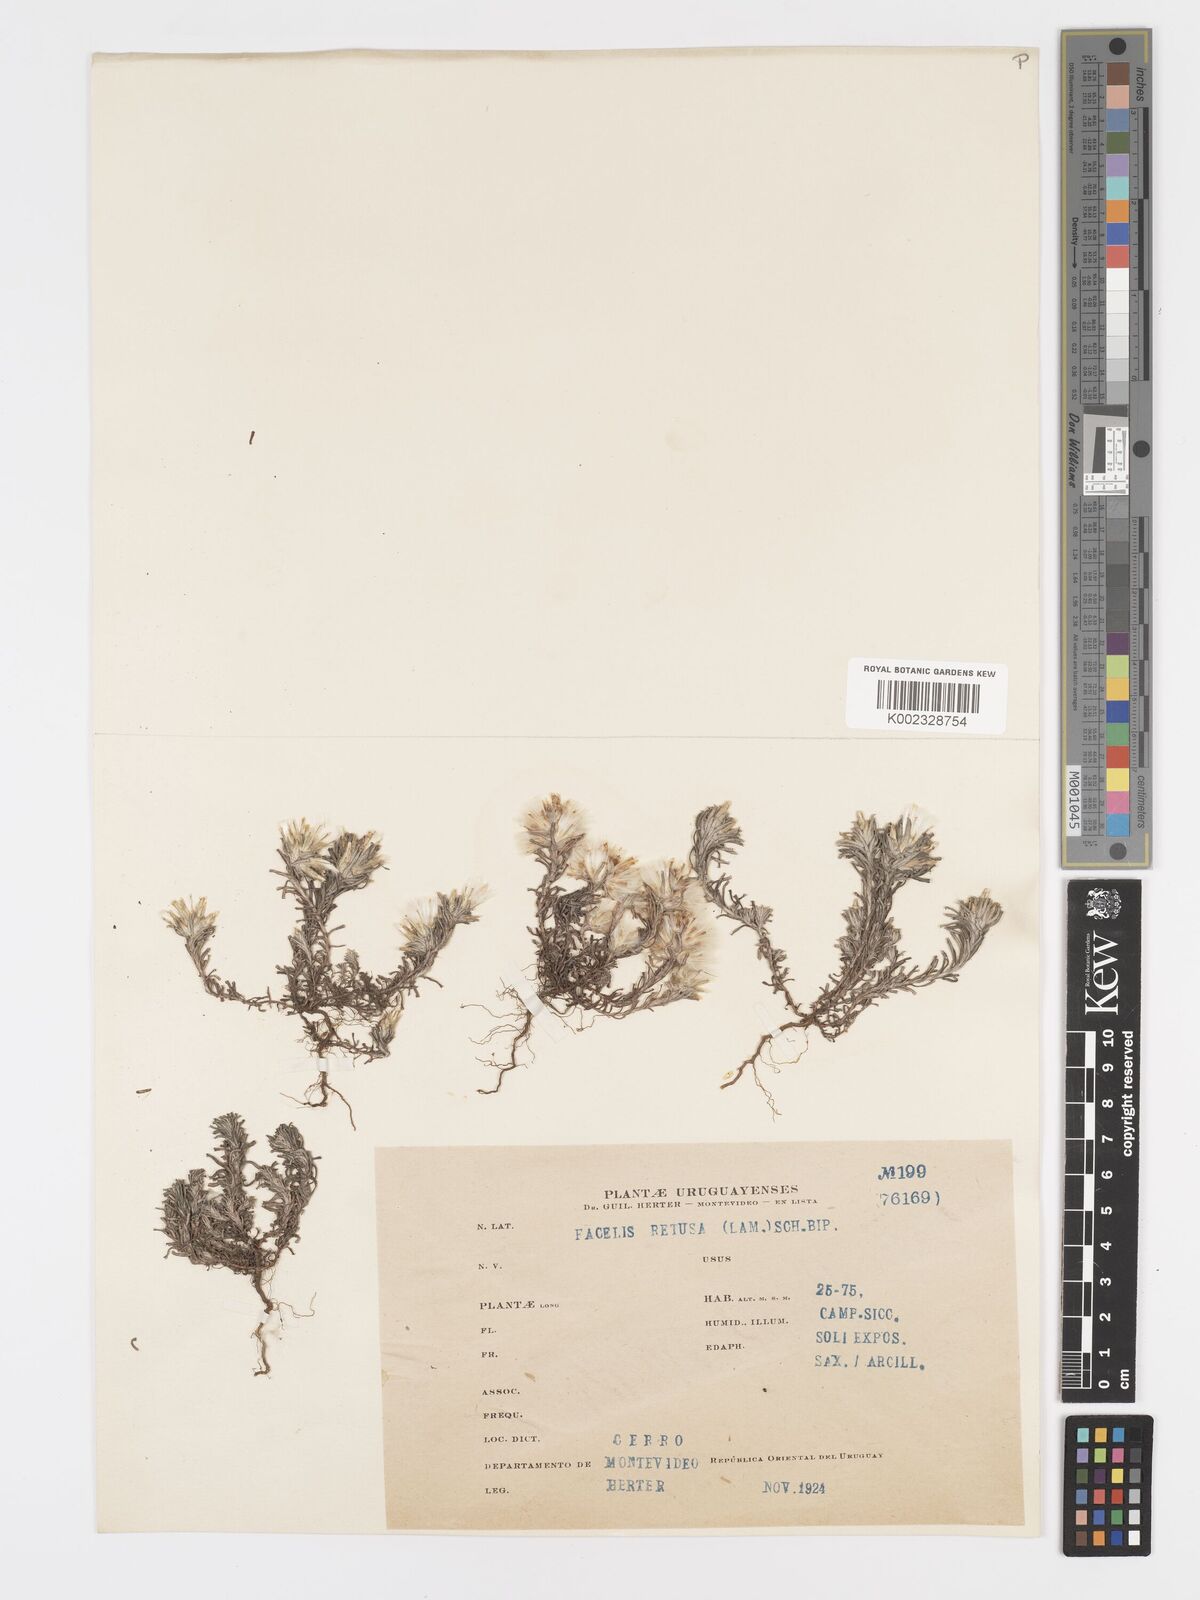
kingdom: Plantae
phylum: Tracheophyta
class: Magnoliopsida
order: Asterales
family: Asteraceae
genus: Facelis
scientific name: Facelis retusa
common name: Annual trampweed
